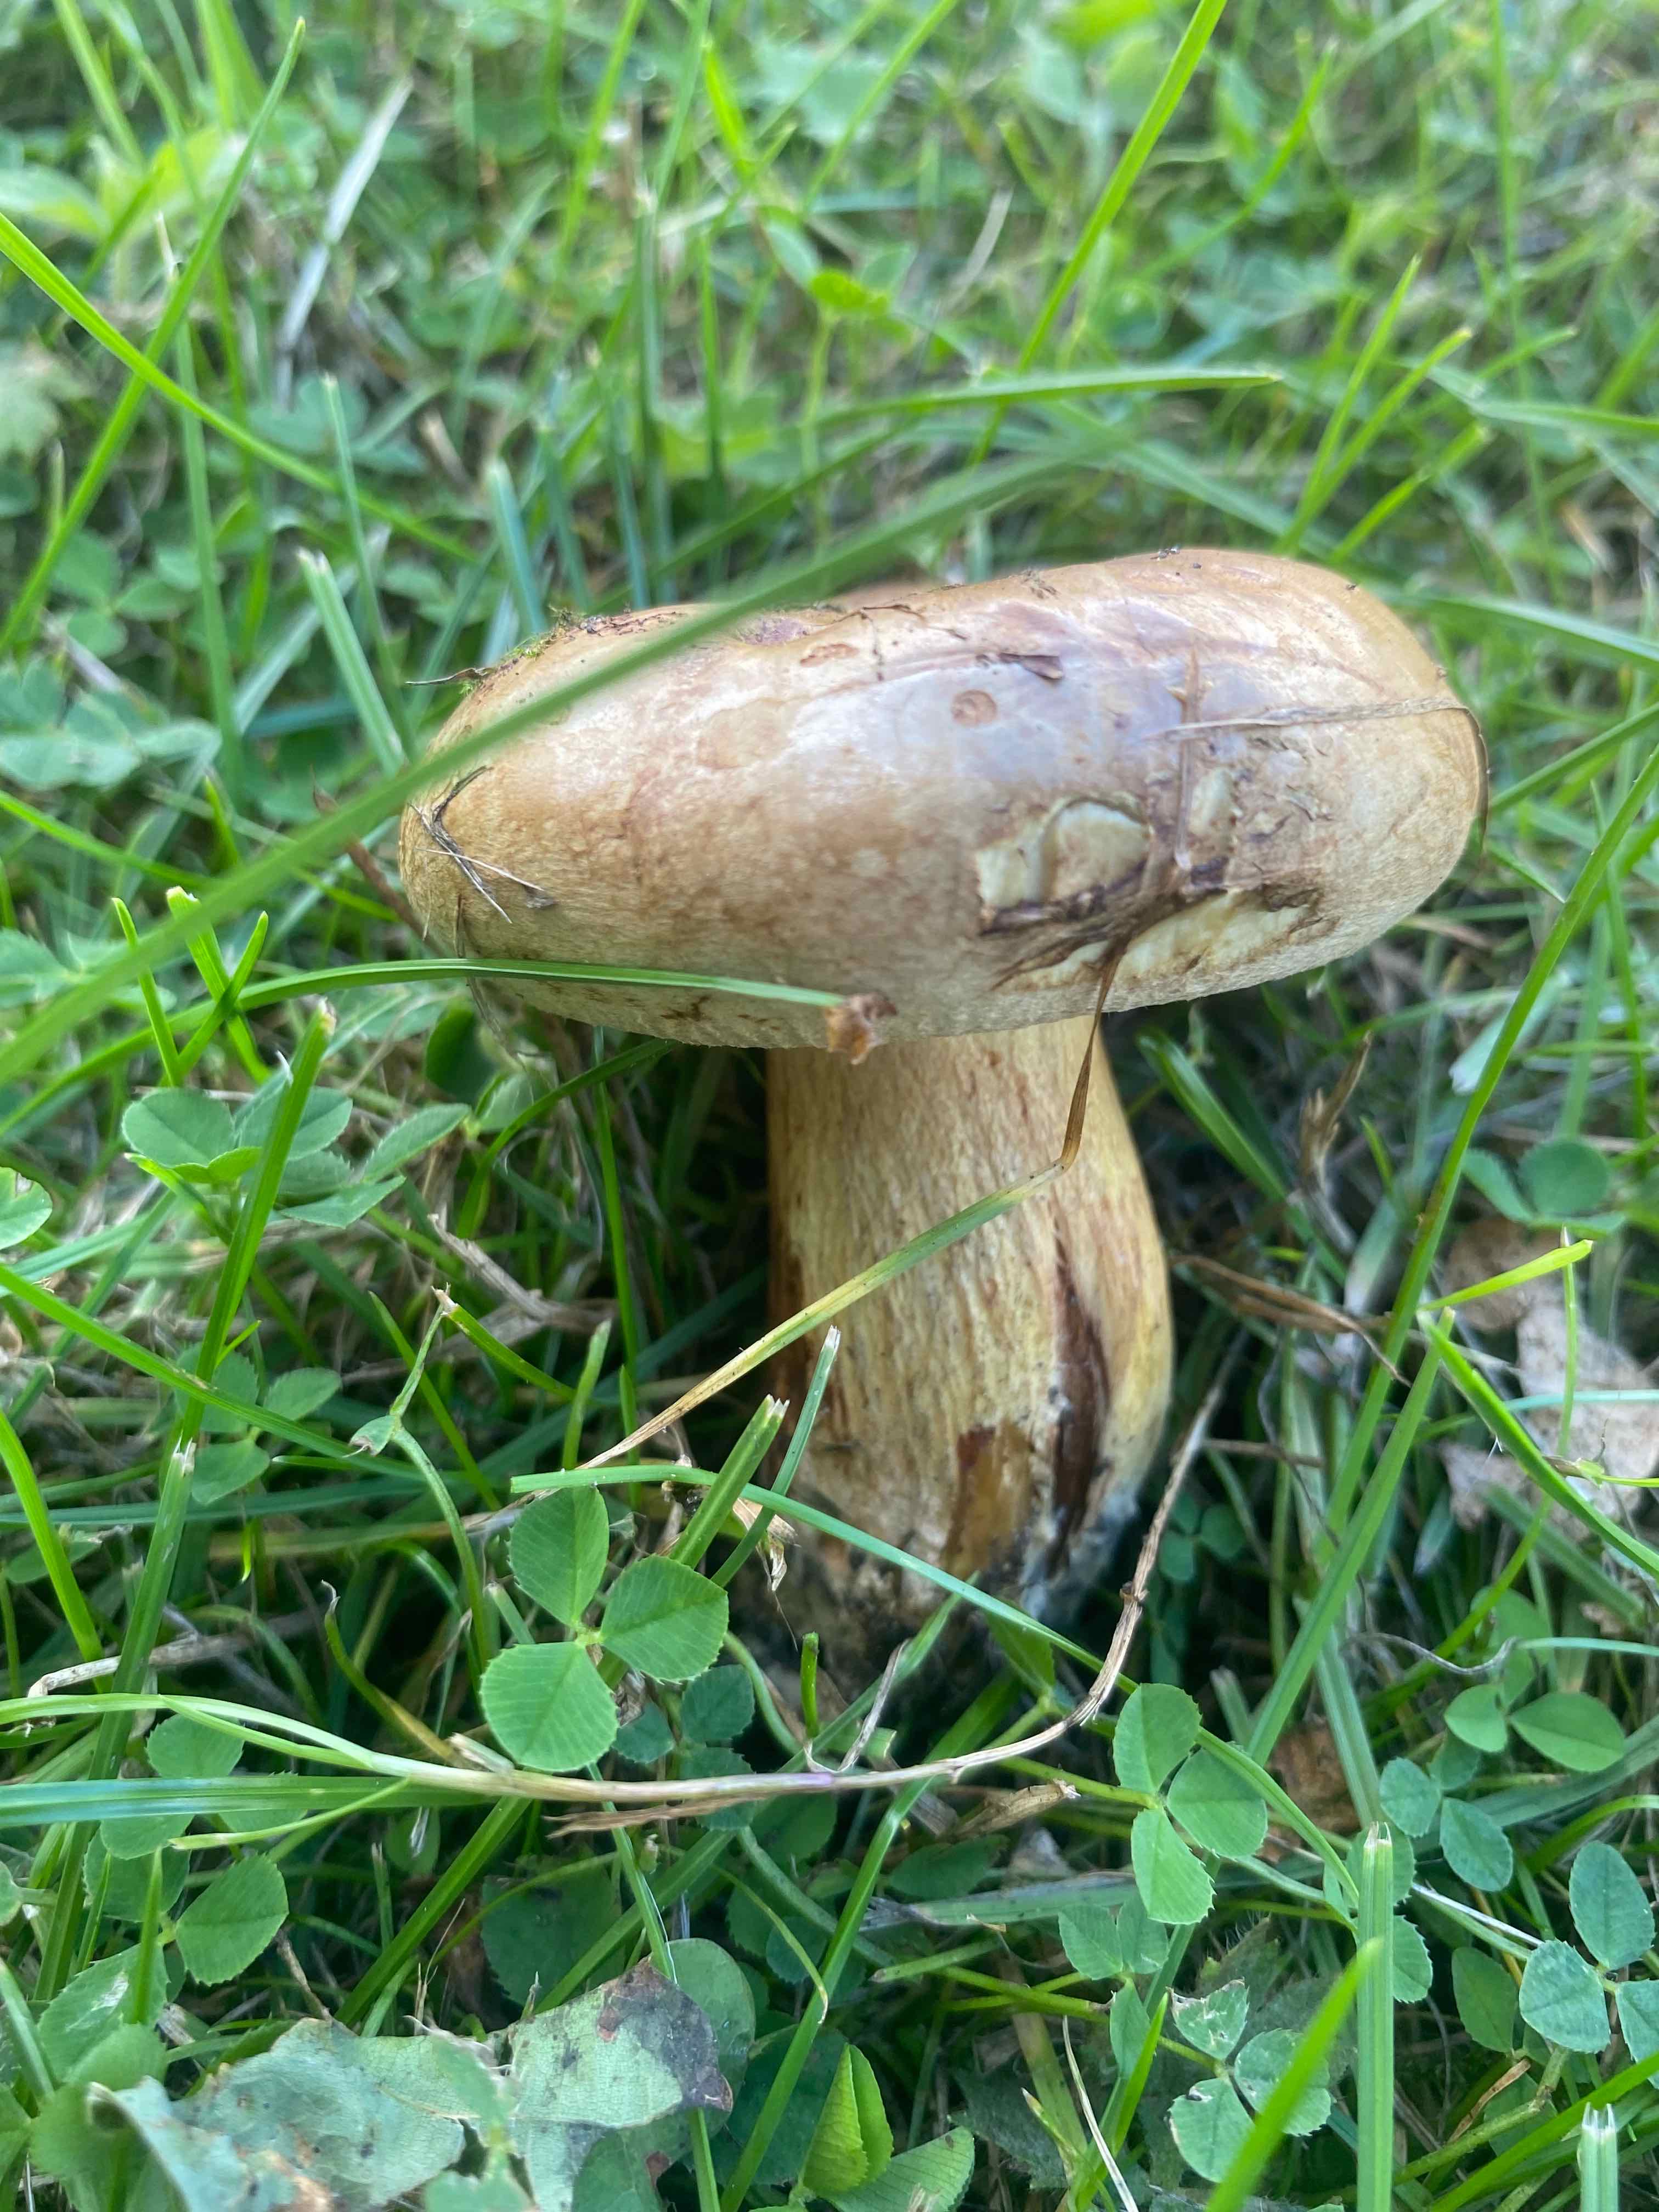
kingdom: Fungi
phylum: Basidiomycota
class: Agaricomycetes
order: Boletales
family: Paxillaceae
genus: Paxillus
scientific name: Paxillus
